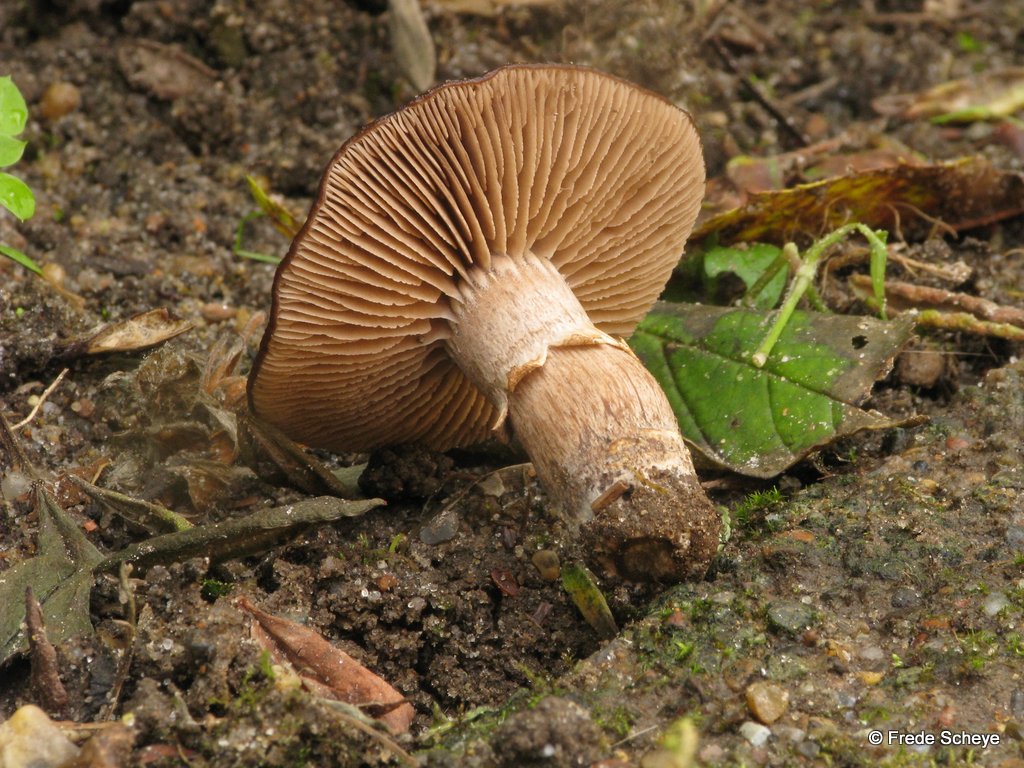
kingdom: Fungi
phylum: Basidiomycota
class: Agaricomycetes
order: Agaricales
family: Tubariaceae
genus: Cyclocybe
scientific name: Cyclocybe erebia
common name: mørk agerhat
